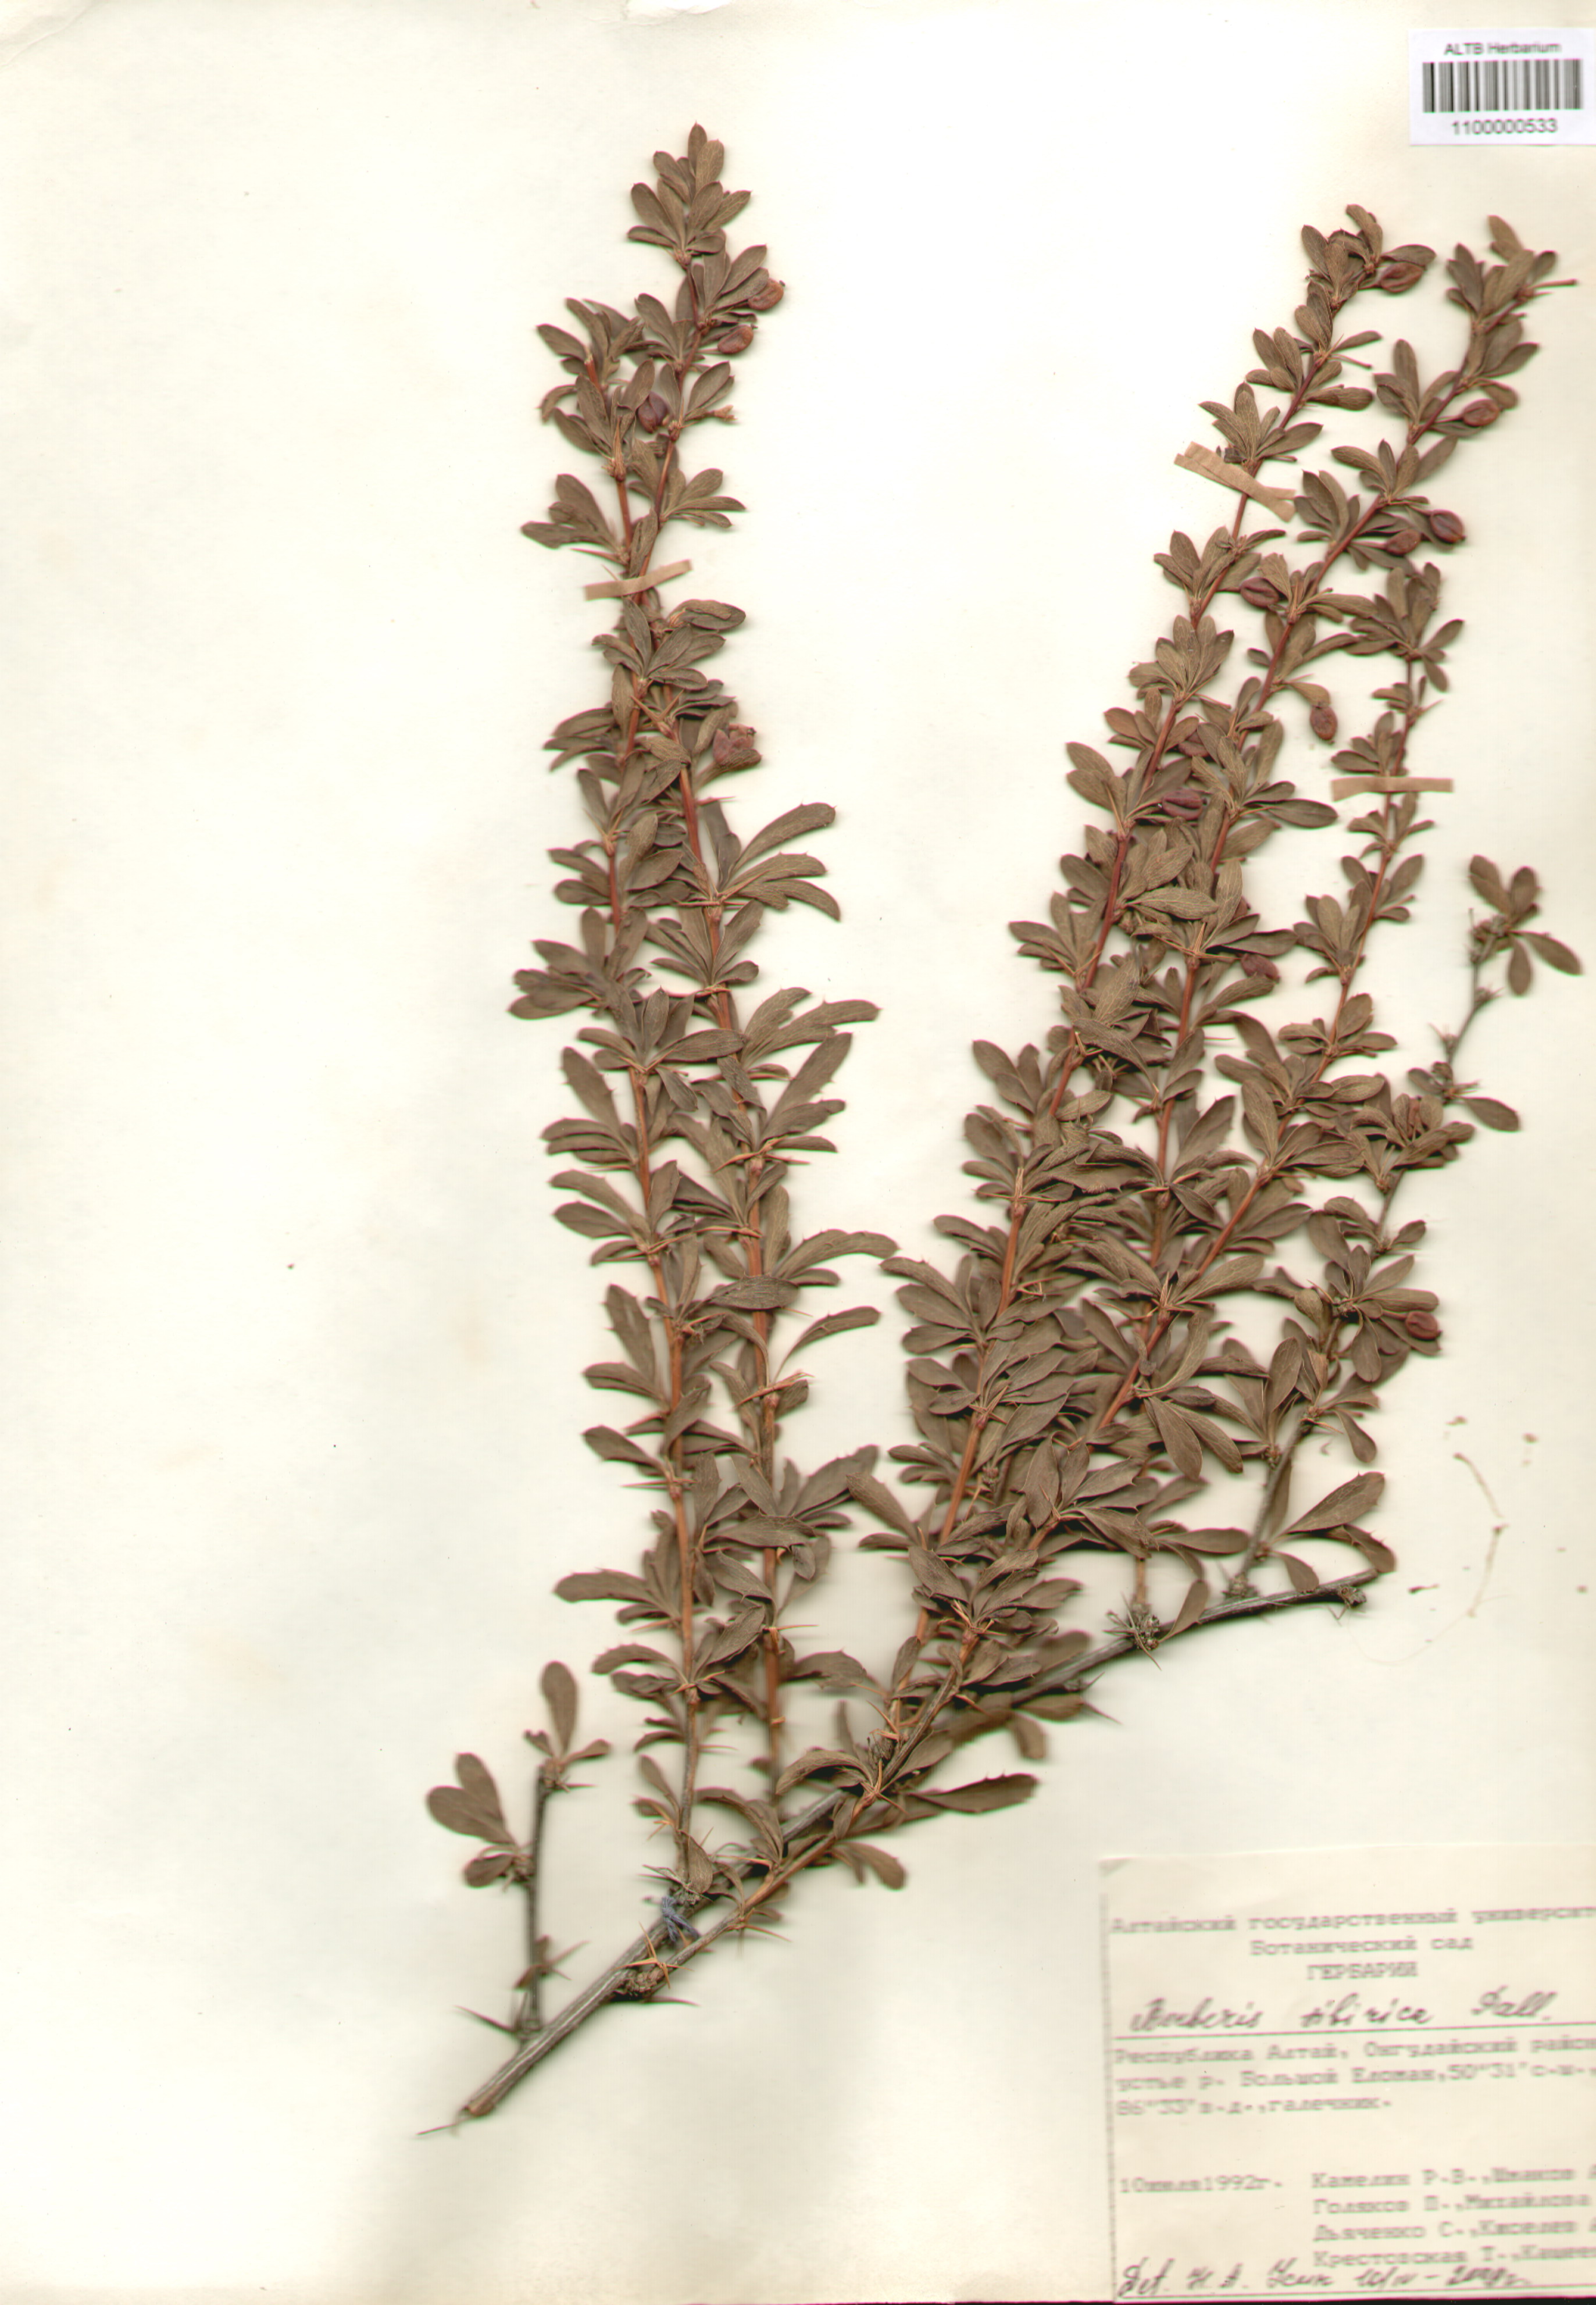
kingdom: Plantae
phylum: Tracheophyta
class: Magnoliopsida
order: Ranunculales
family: Berberidaceae
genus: Berberis
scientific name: Berberis sibirica
